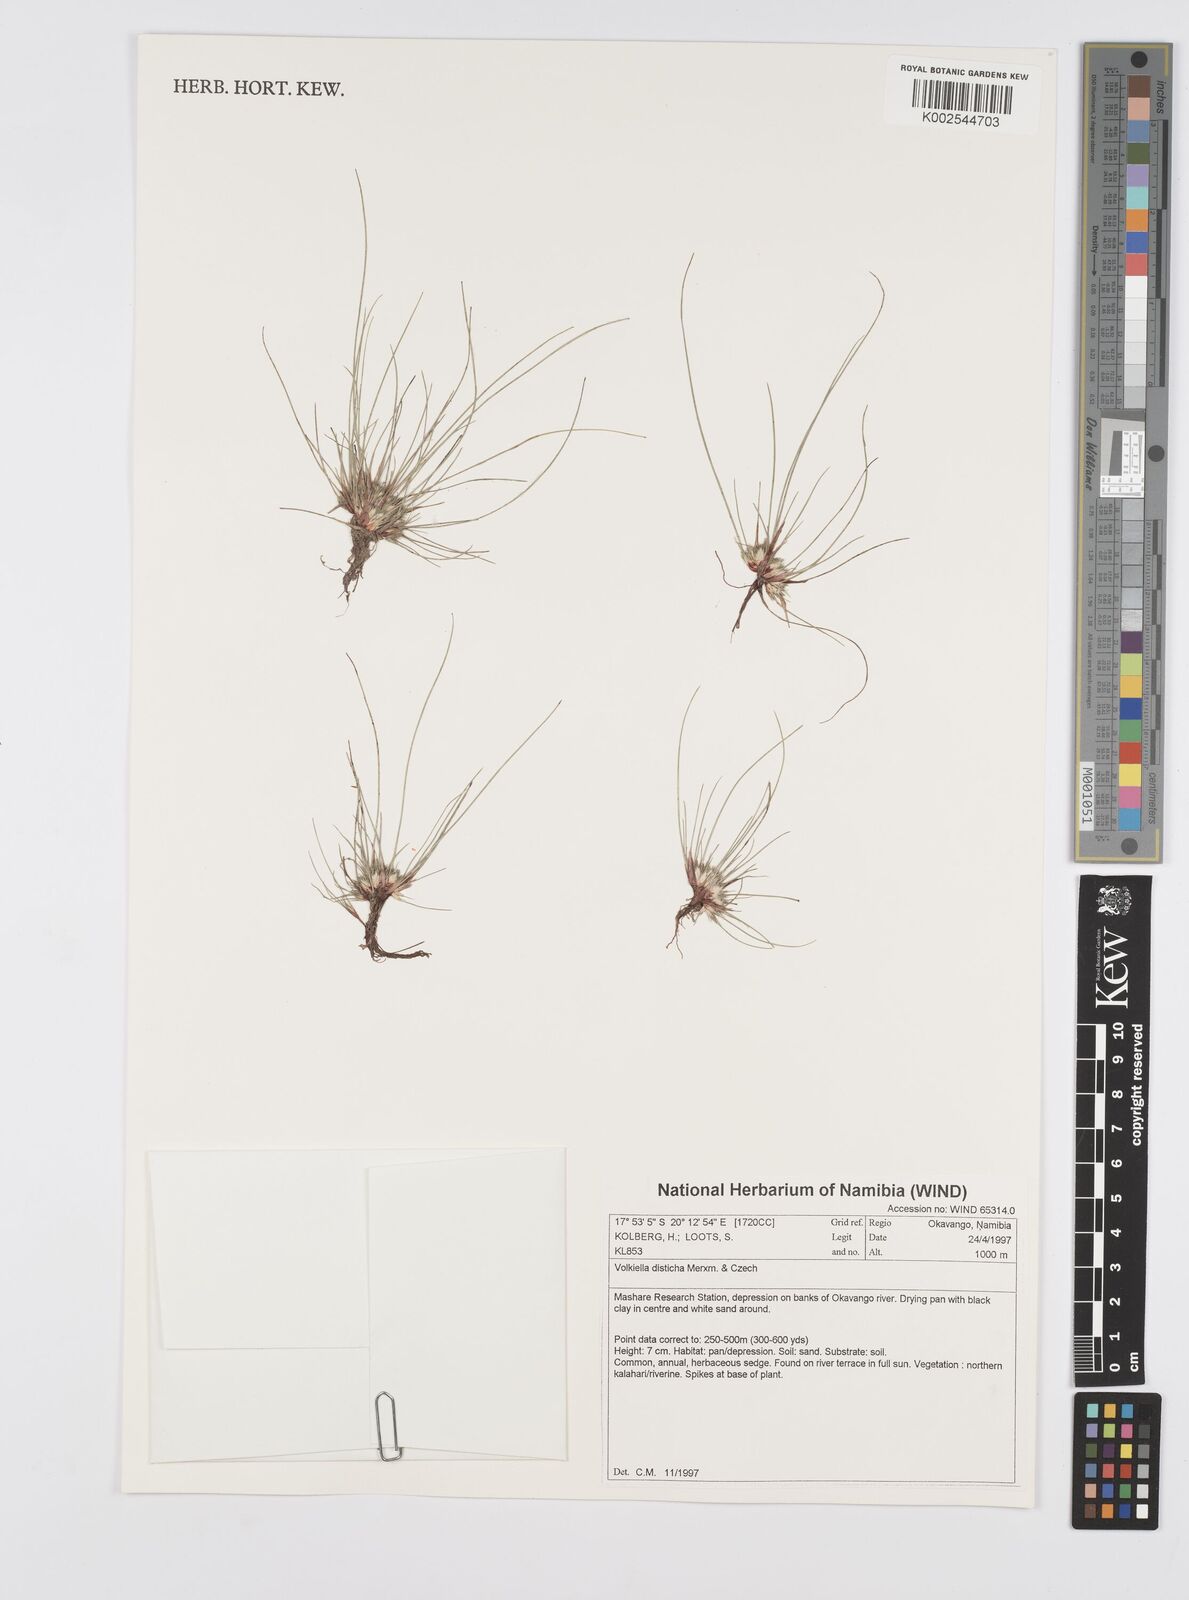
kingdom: Plantae
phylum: Tracheophyta
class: Liliopsida
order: Poales
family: Cyperaceae
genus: Cyperus
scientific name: Cyperus distichus
